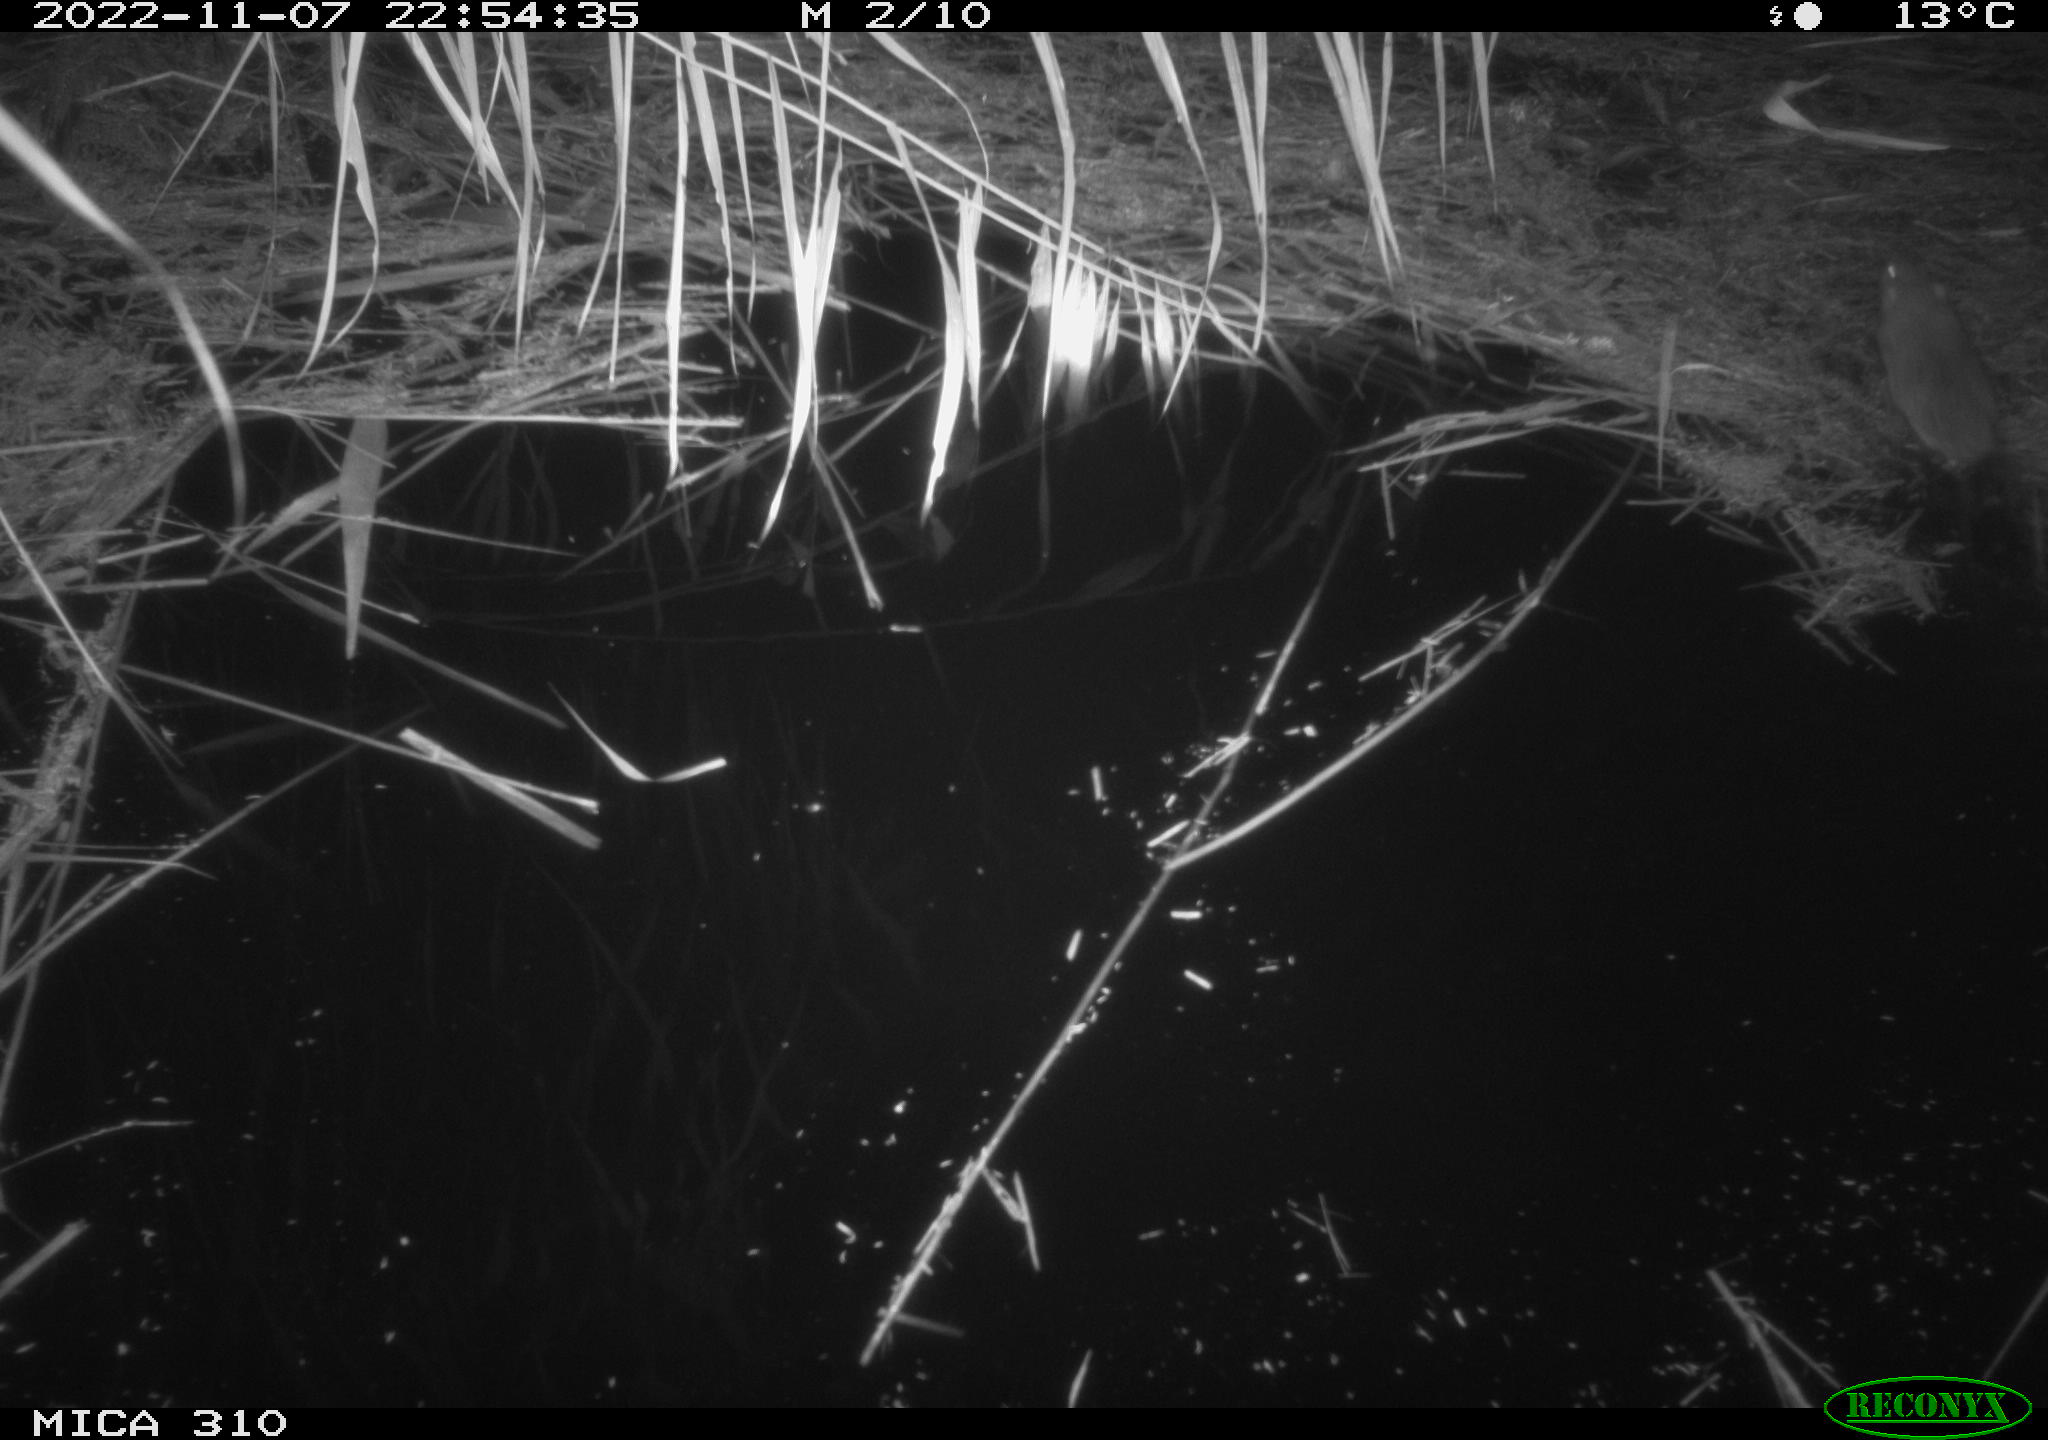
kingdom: Animalia
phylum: Chordata
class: Mammalia
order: Rodentia
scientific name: Rodentia
